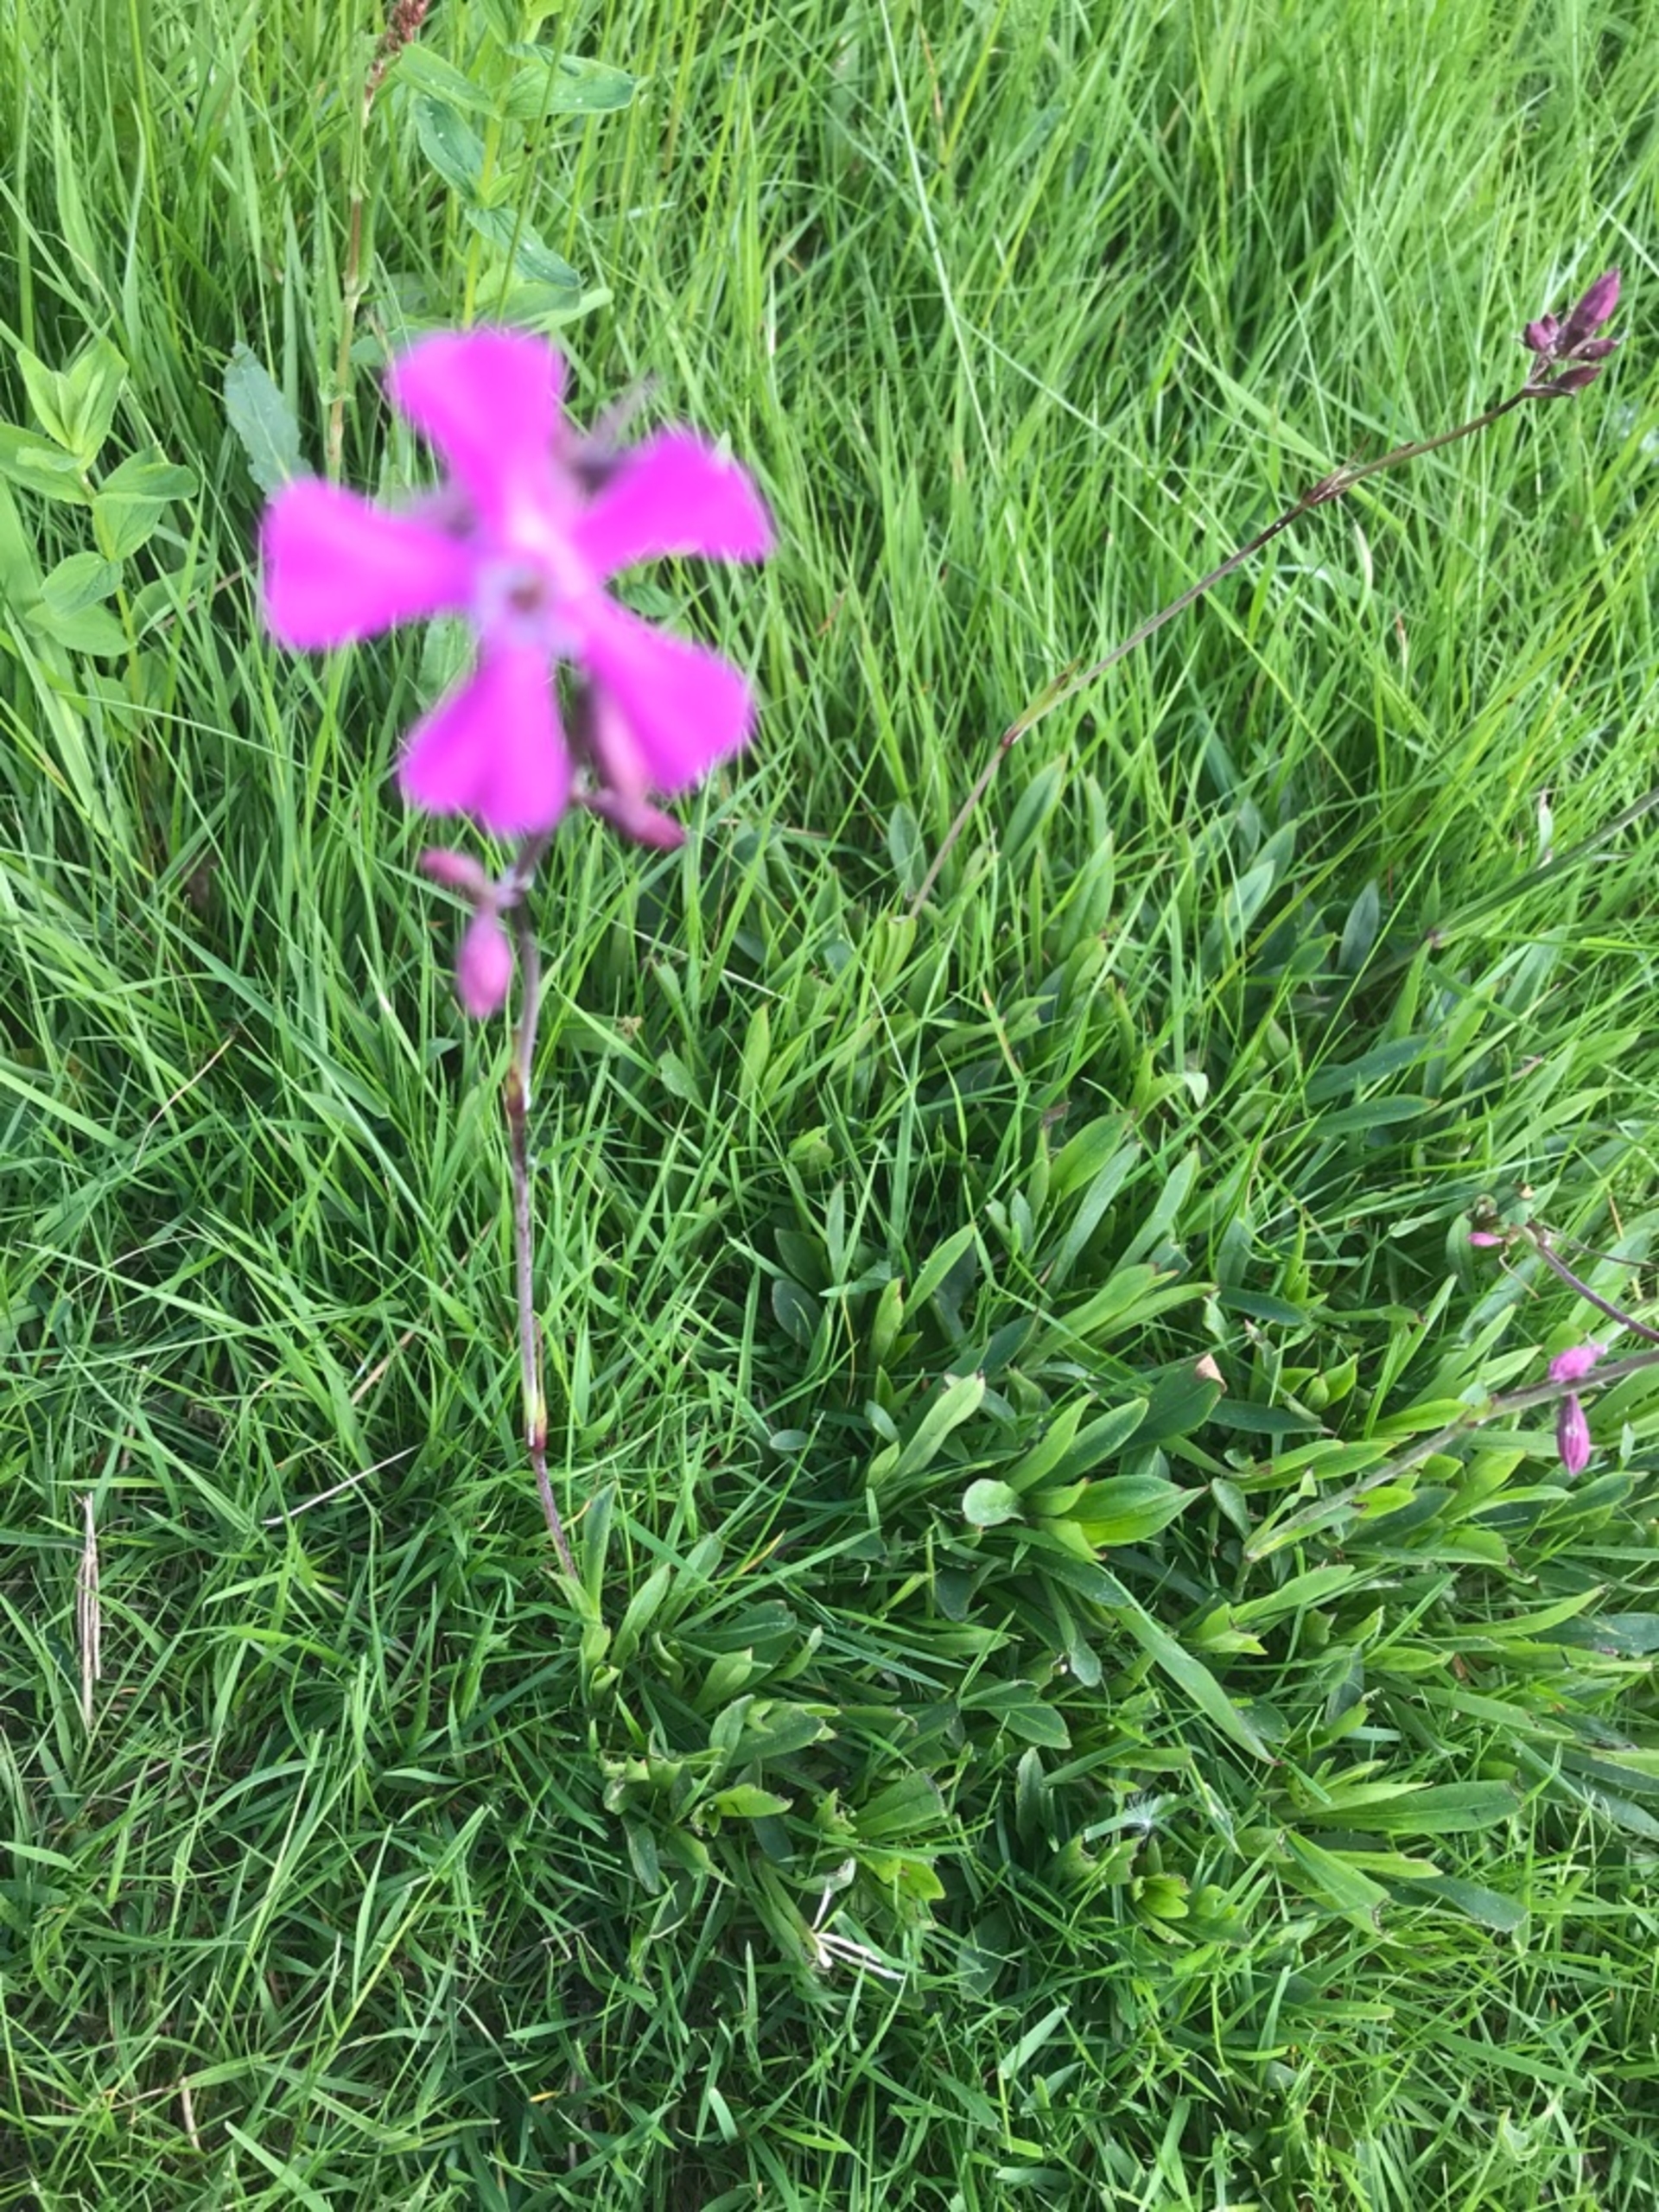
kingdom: Plantae
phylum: Tracheophyta
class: Magnoliopsida
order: Caryophyllales
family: Caryophyllaceae
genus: Viscaria
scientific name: Viscaria vulgaris
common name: Tjærenellike
